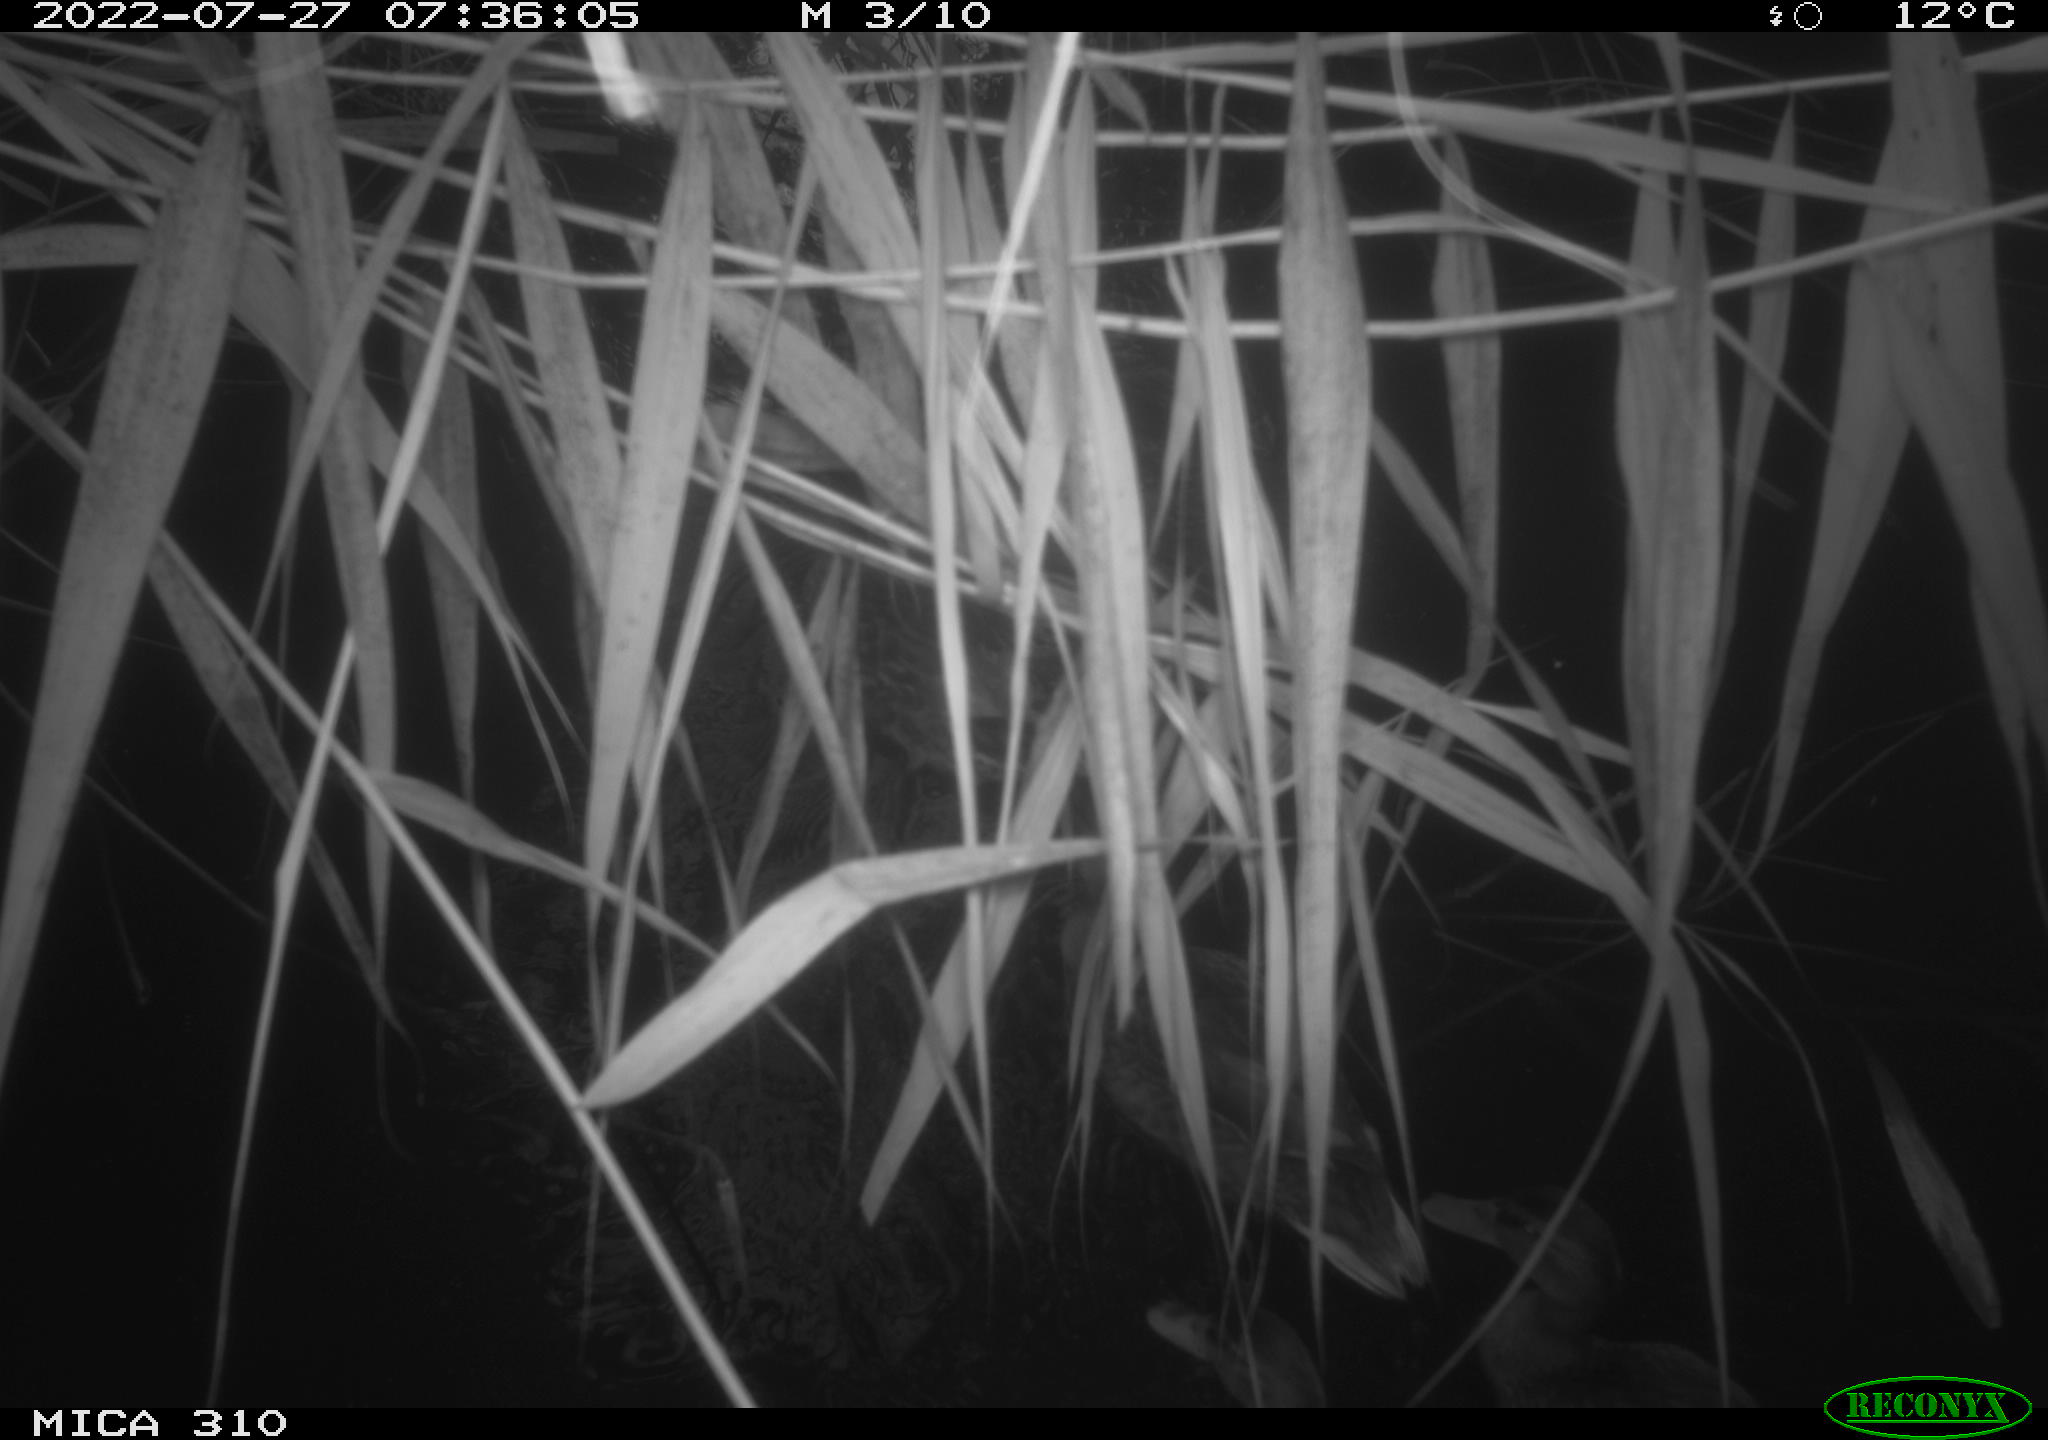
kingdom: Animalia
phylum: Chordata
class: Aves
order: Anseriformes
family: Anatidae
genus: Anas
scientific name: Anas platyrhynchos
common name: Mallard
